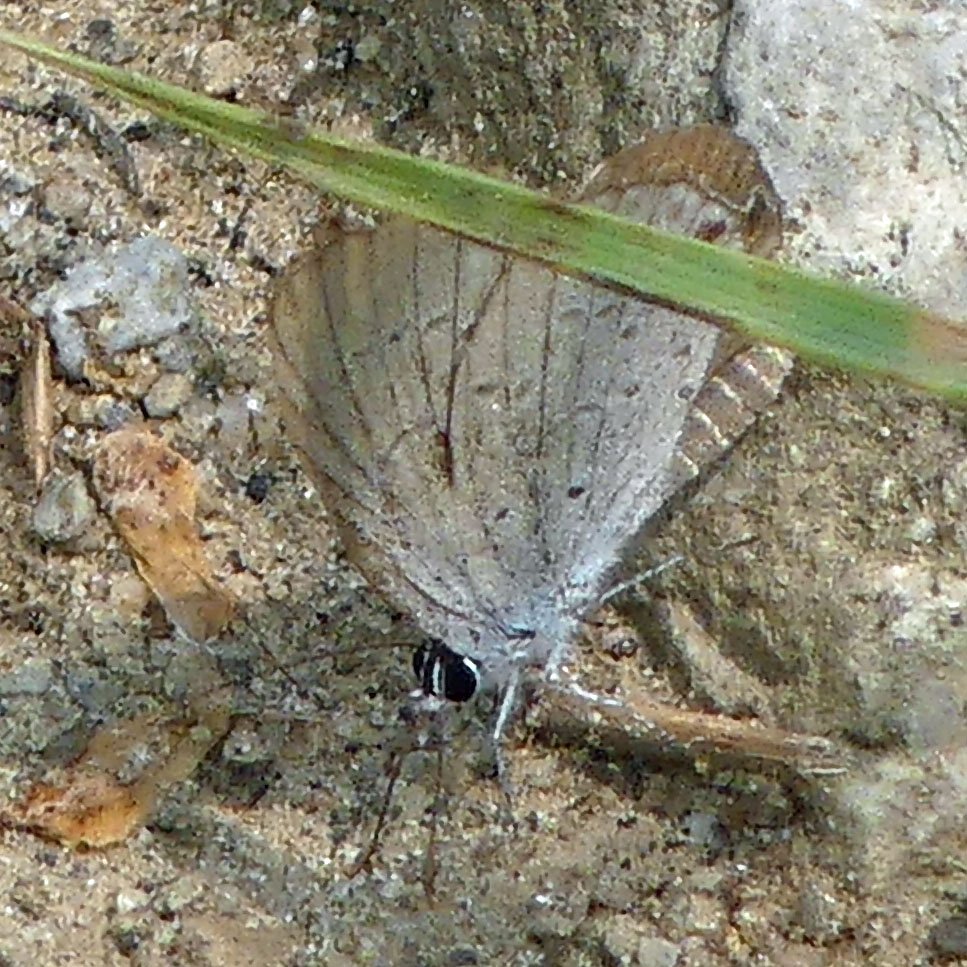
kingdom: Animalia
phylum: Arthropoda
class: Insecta
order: Lepidoptera
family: Lycaenidae
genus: Celastrina
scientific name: Celastrina
